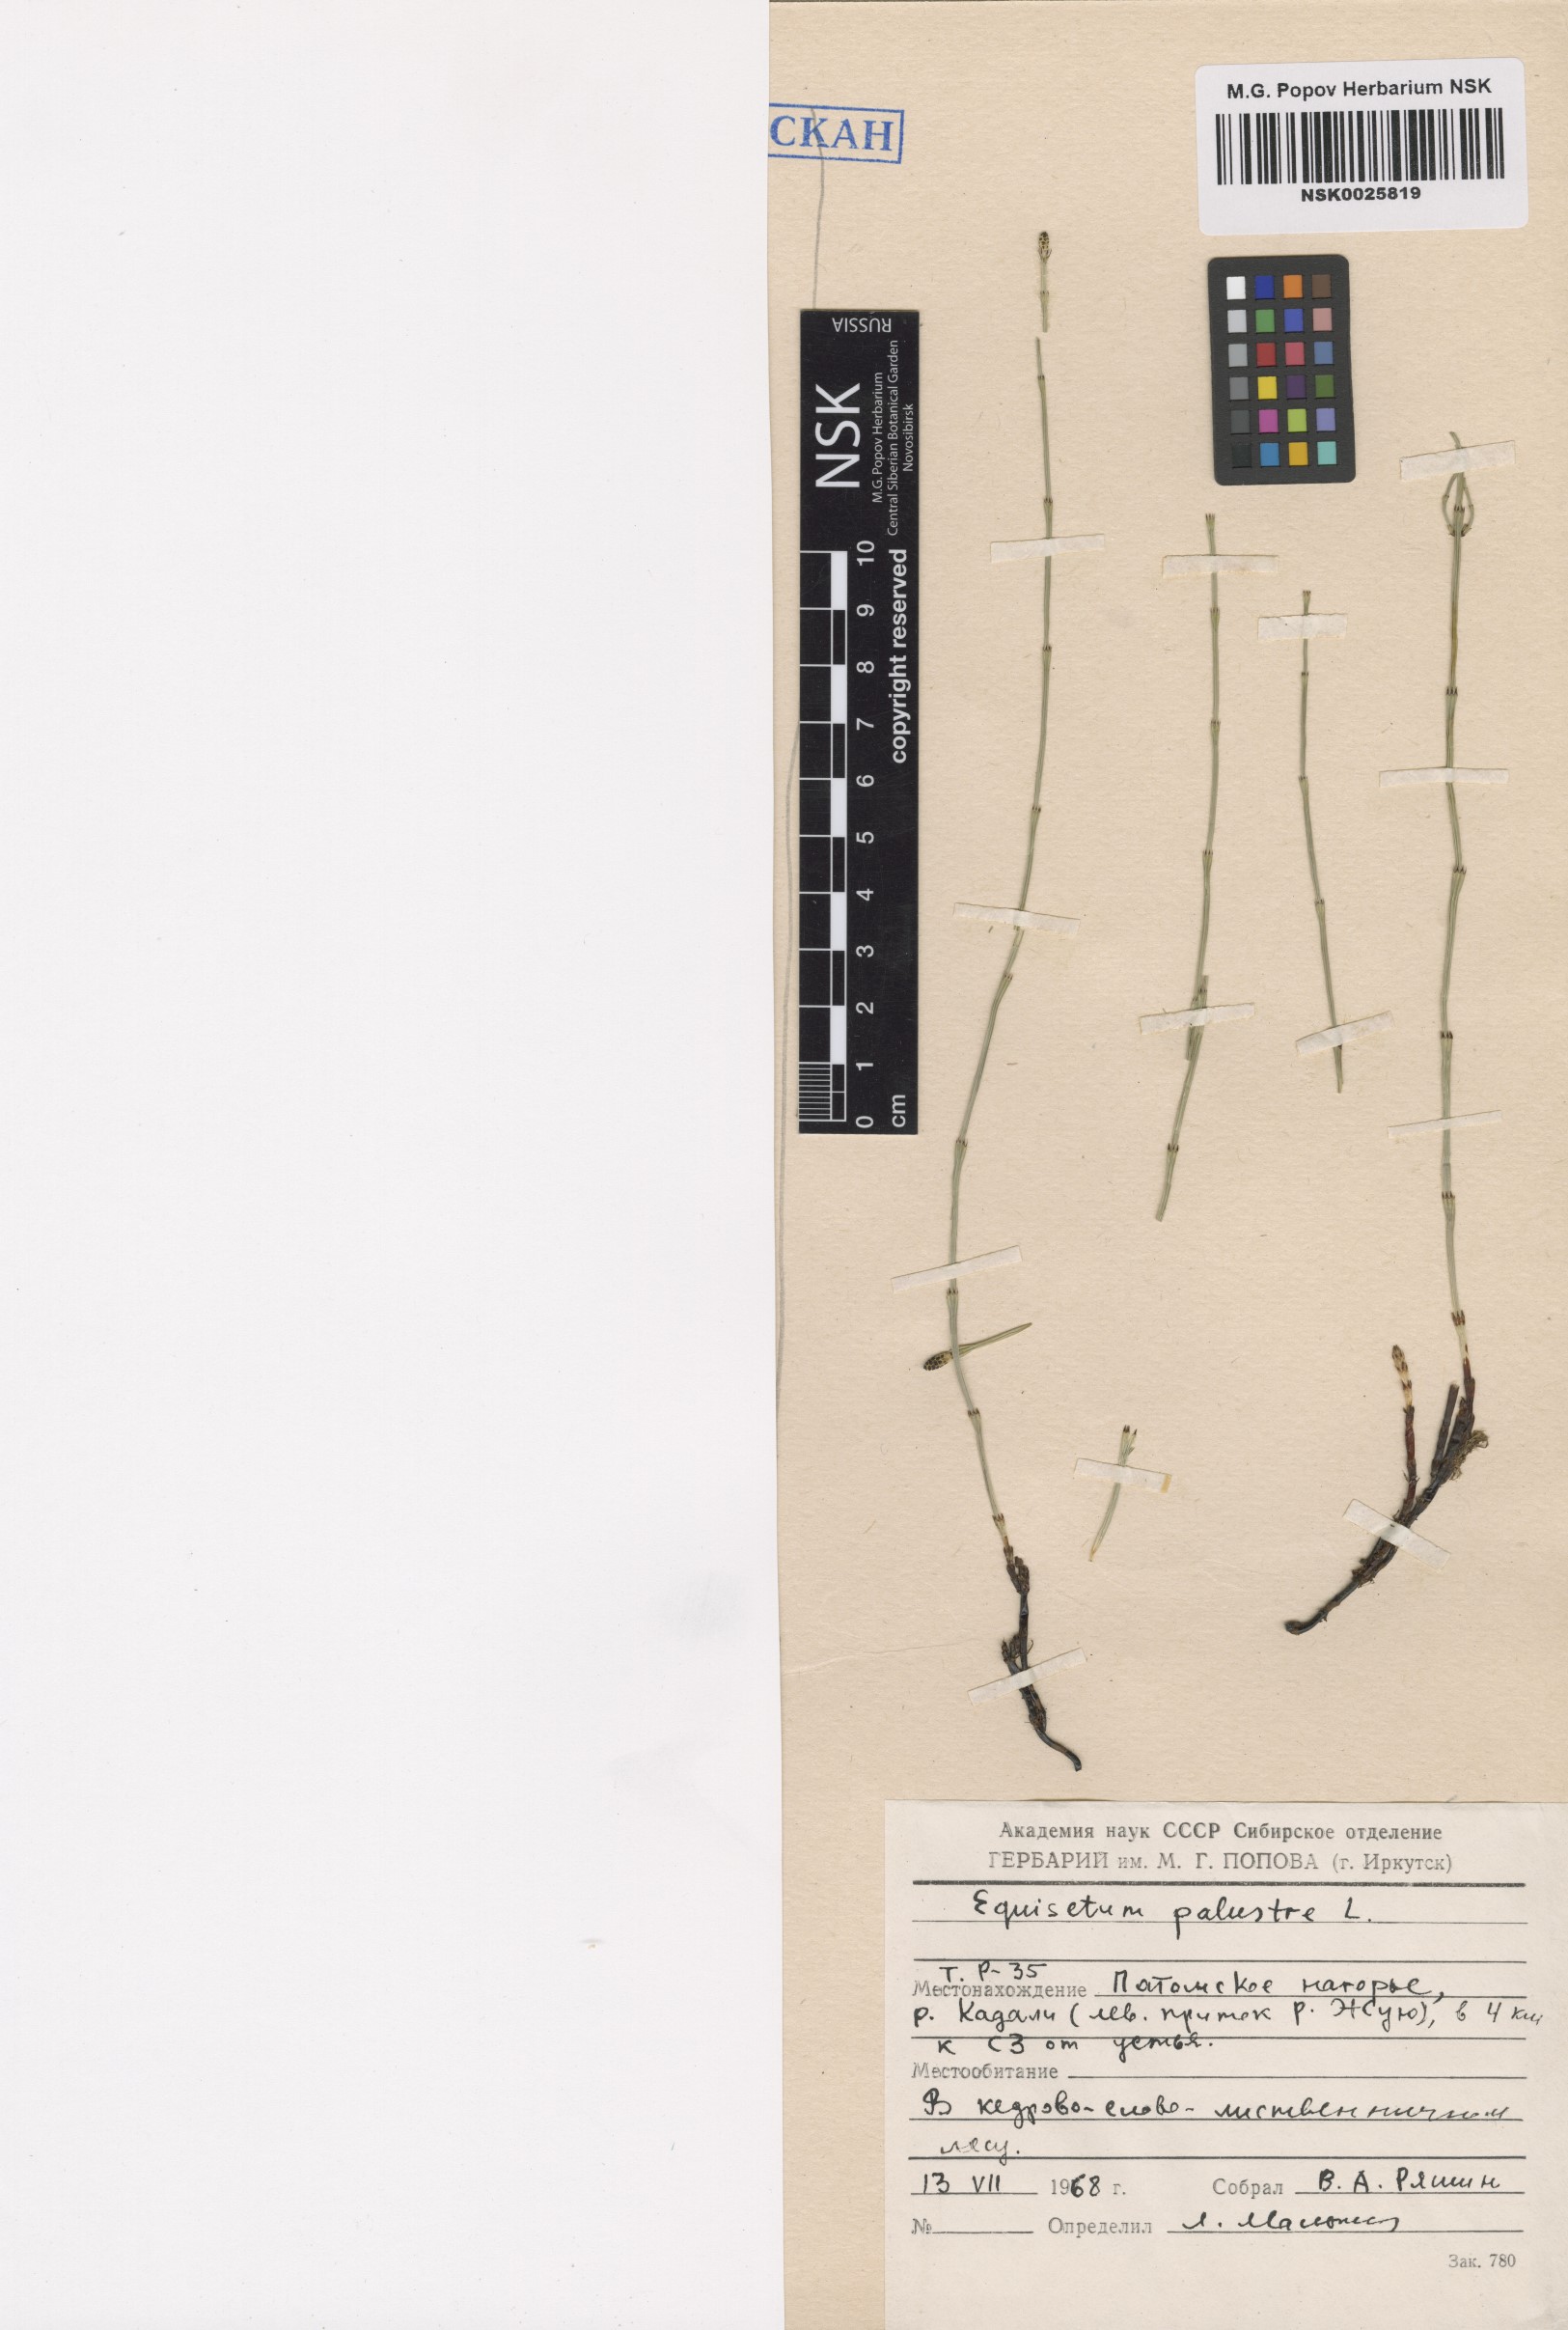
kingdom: Plantae
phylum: Tracheophyta
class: Polypodiopsida
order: Equisetales
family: Equisetaceae
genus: Equisetum
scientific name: Equisetum palustre
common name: Marsh horsetail
